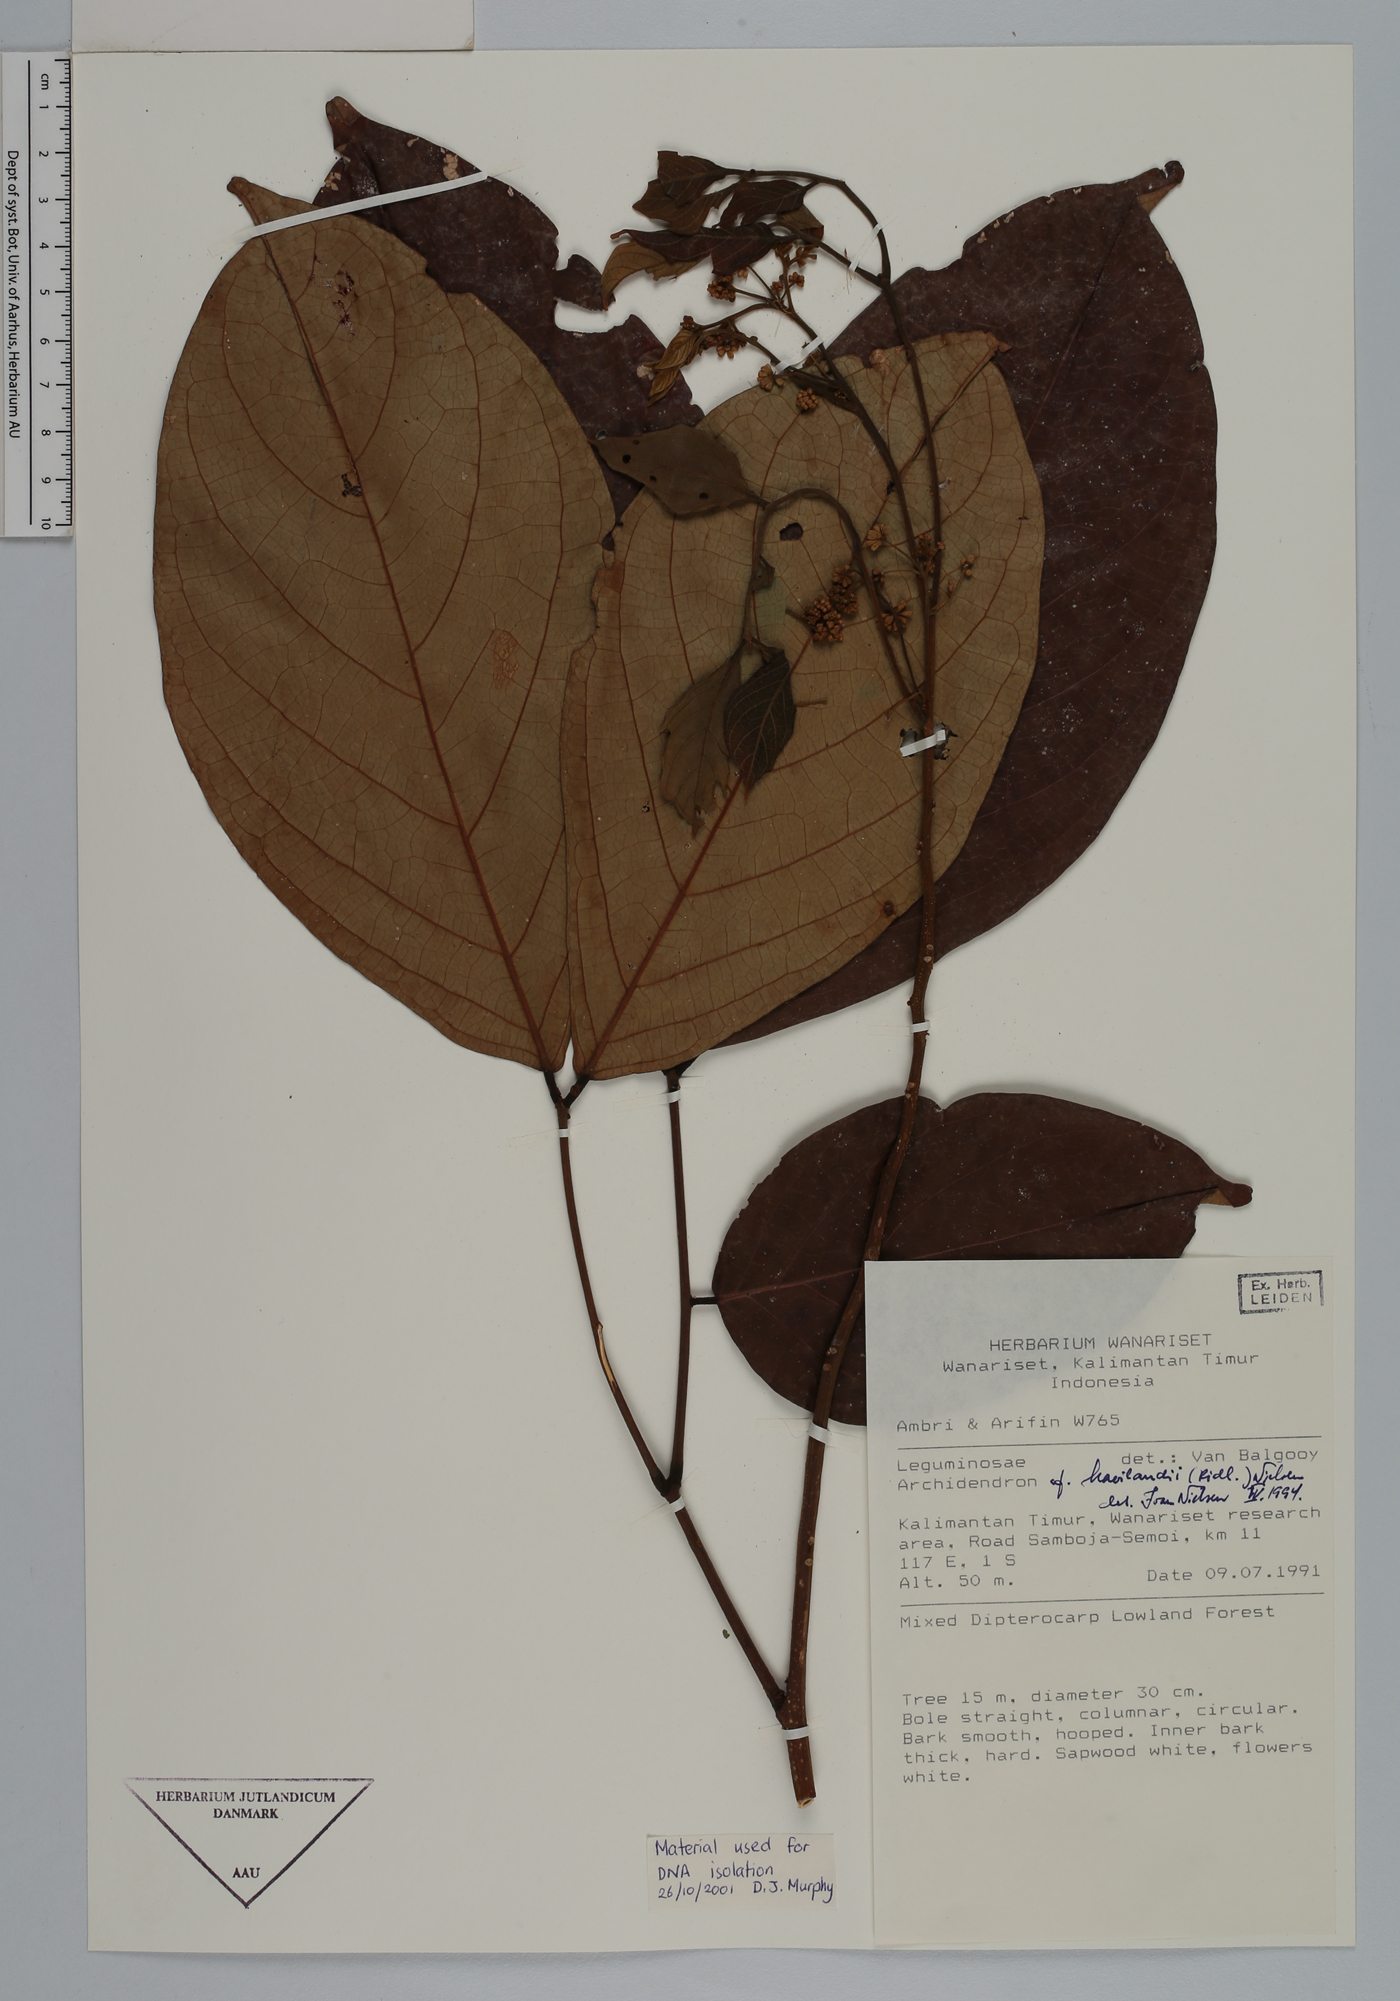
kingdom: Plantae
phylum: Tracheophyta
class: Magnoliopsida
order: Fabales
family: Fabaceae
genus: Archidendron
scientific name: Archidendron havilandii
